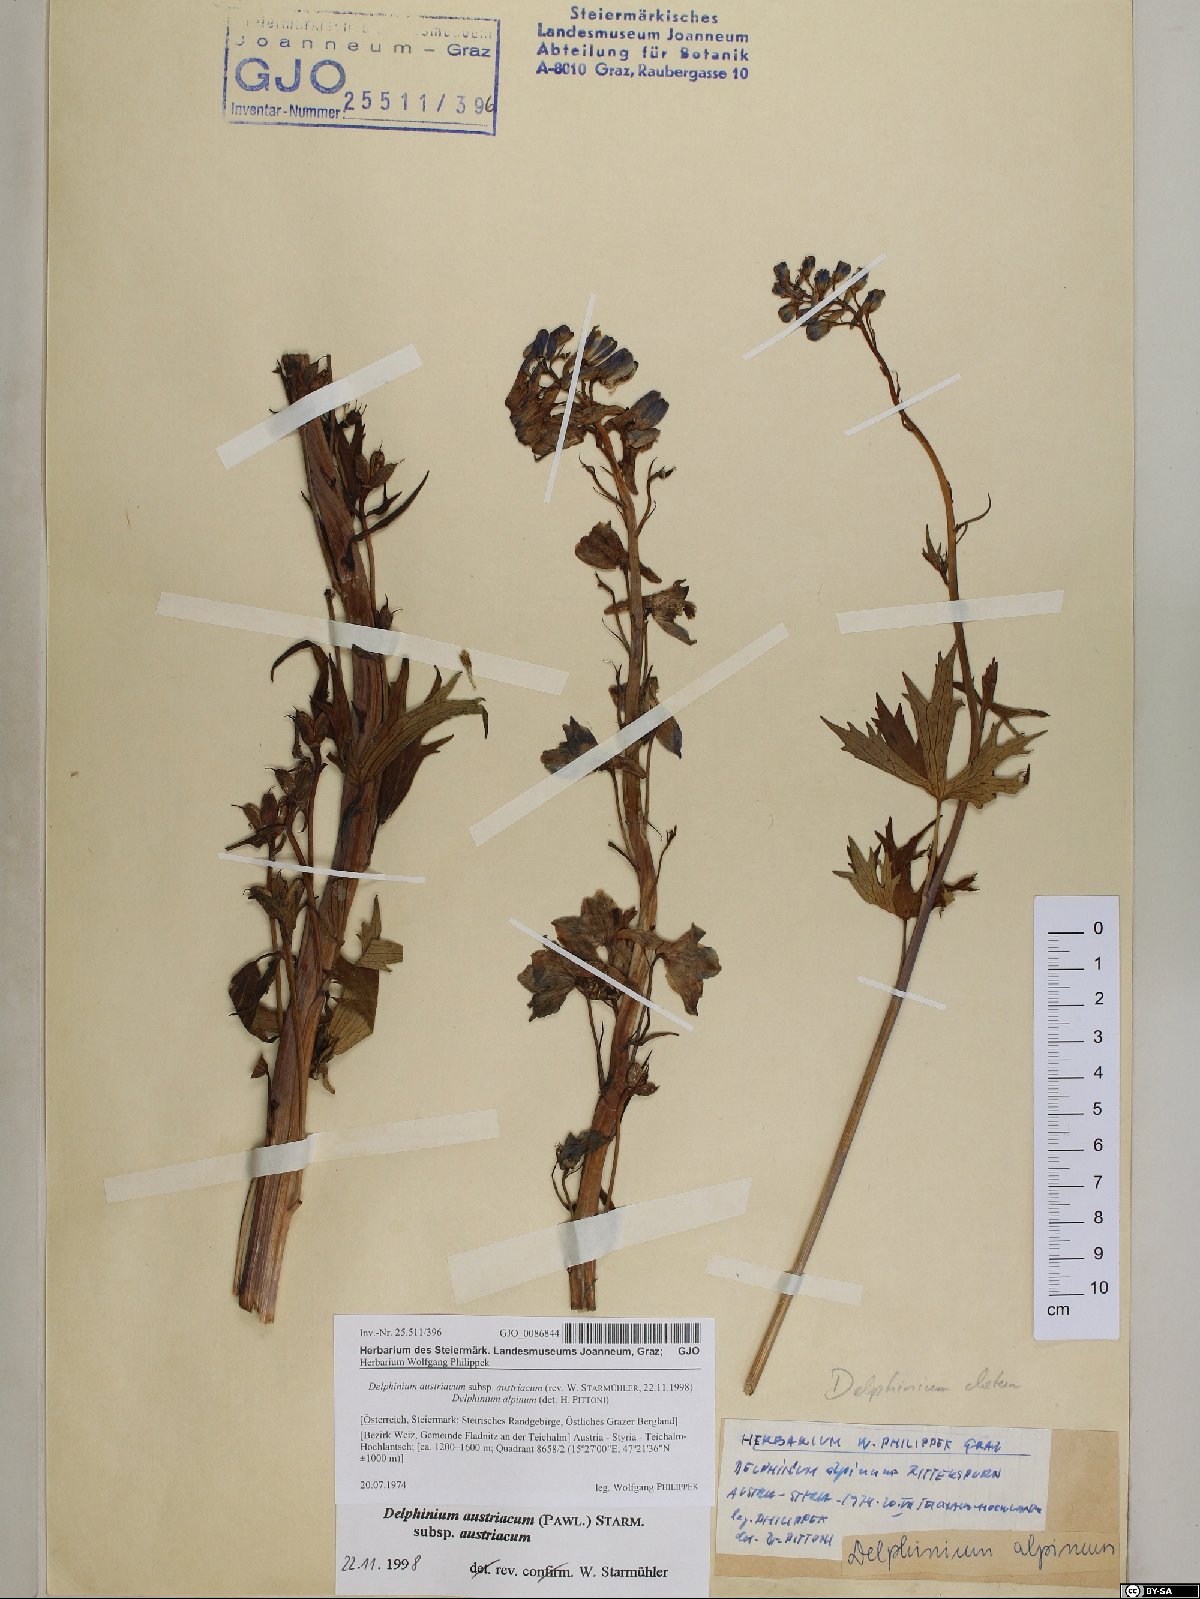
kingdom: Plantae
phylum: Tracheophyta
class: Magnoliopsida
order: Ranunculales
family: Ranunculaceae
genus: Delphinium
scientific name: Delphinium austriacum
